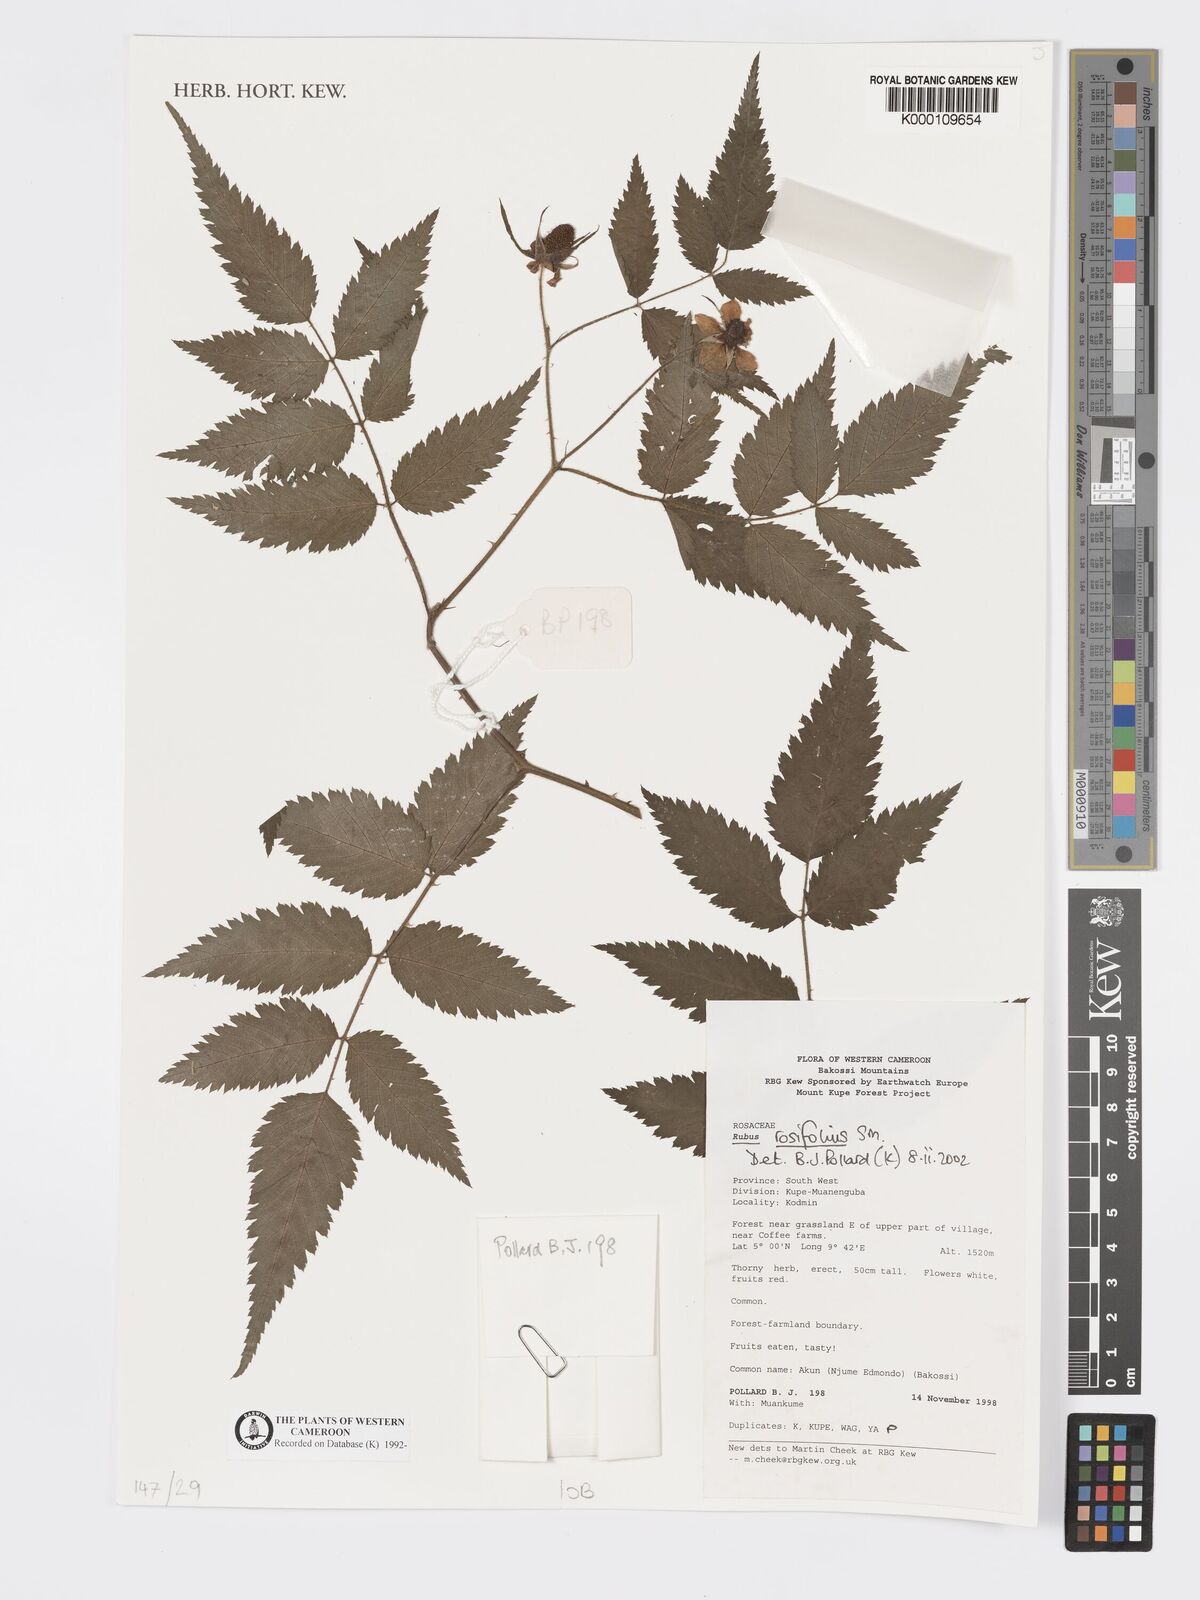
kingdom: Plantae
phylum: Tracheophyta
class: Magnoliopsida
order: Rosales
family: Rosaceae
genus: Rubus
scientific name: Rubus rosifolius
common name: Roseleaf raspberry
